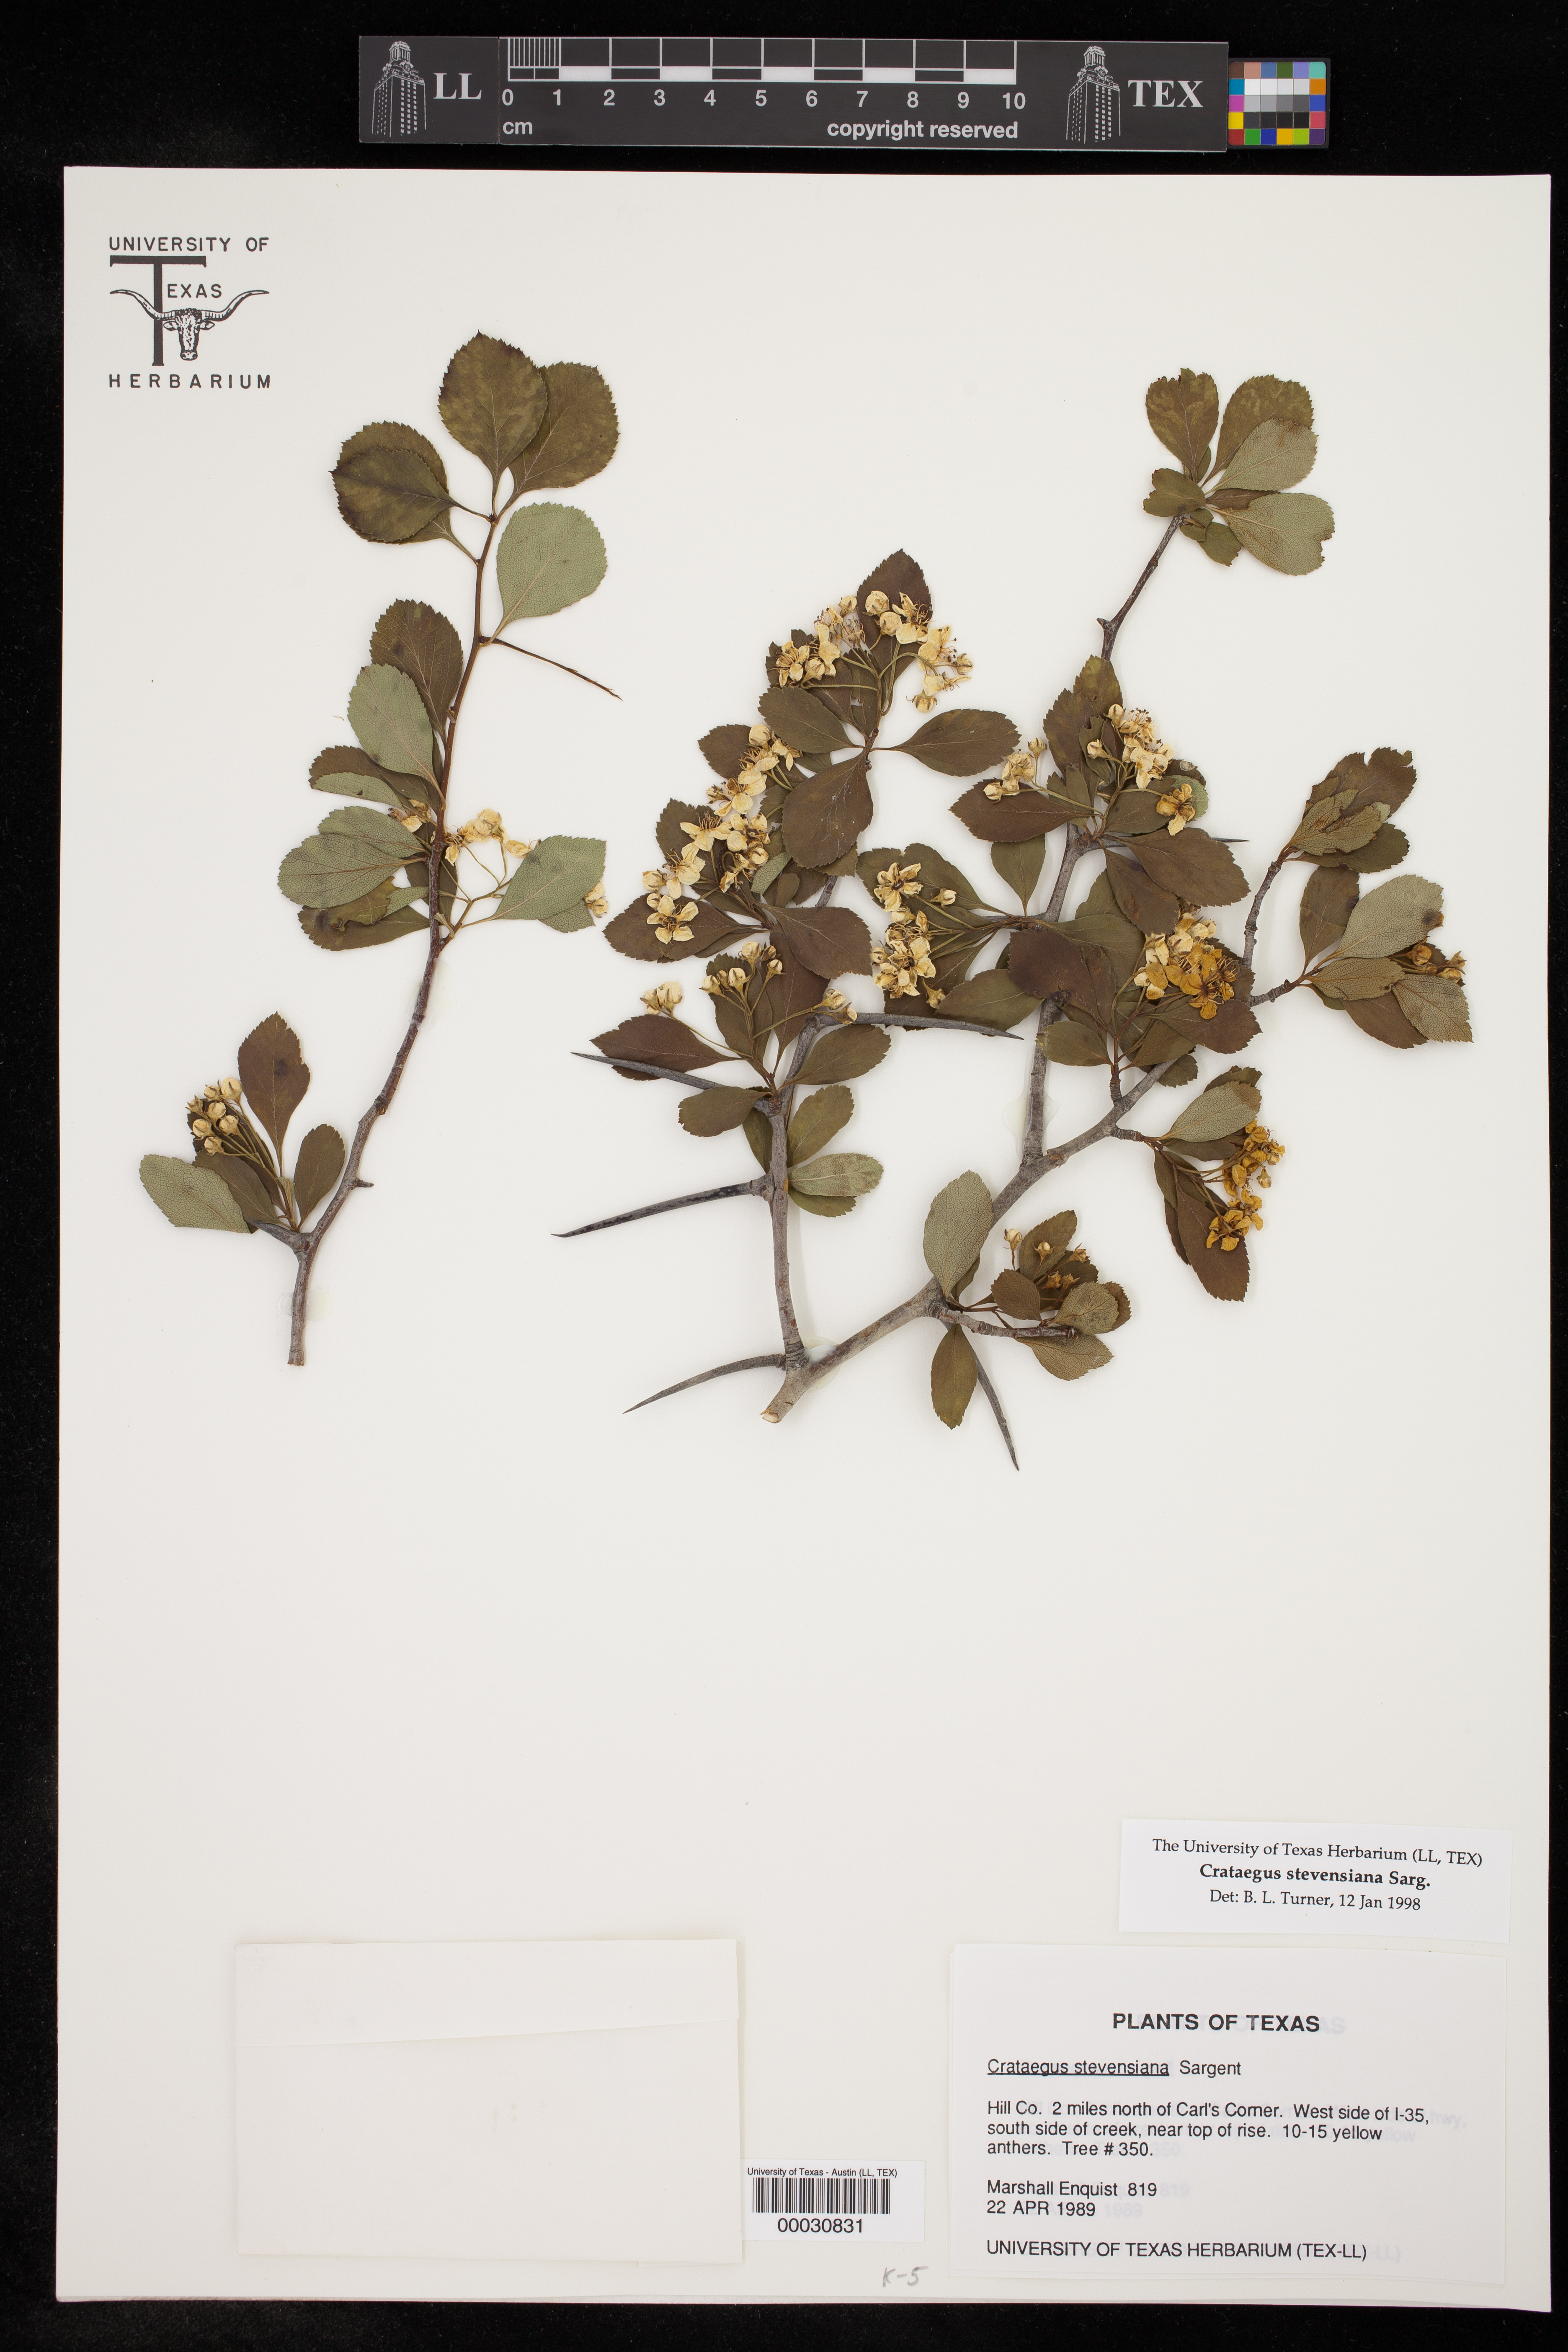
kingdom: Plantae
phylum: Tracheophyta
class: Magnoliopsida
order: Rosales
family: Rosaceae
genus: Crataegus
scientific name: Crataegus reverchonii
